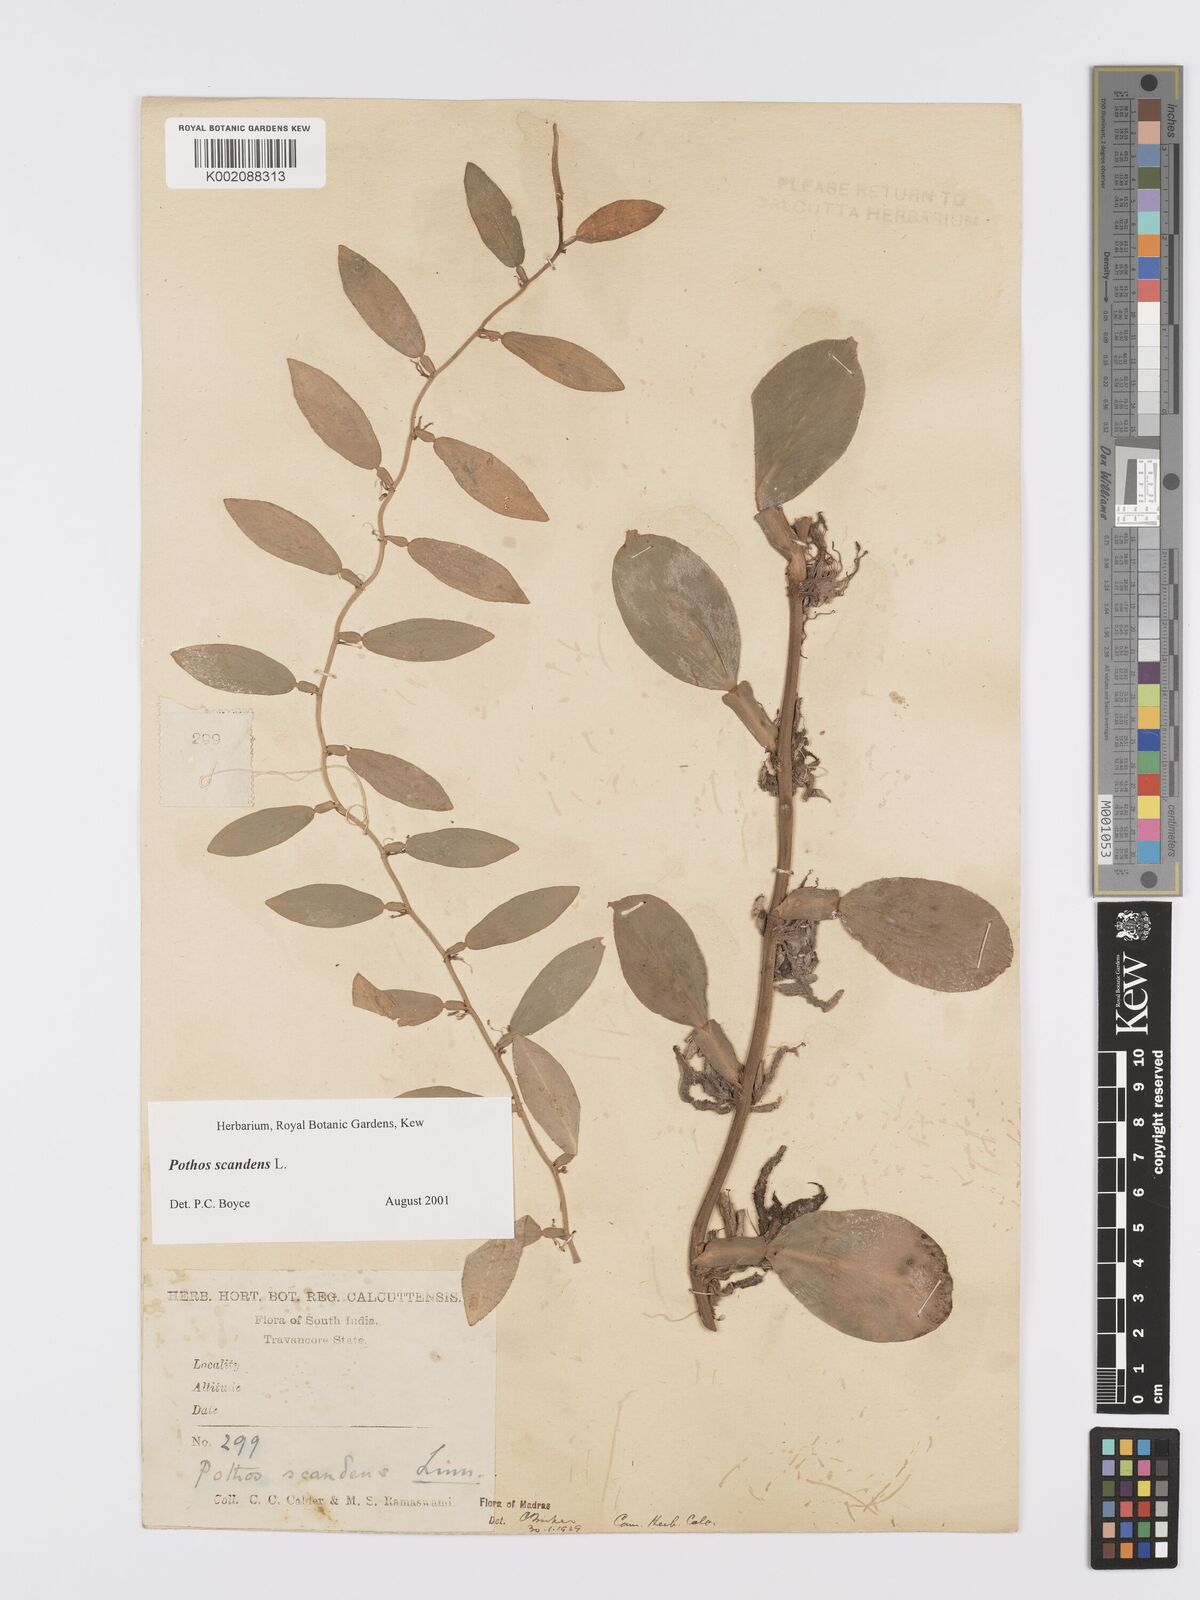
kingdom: Plantae
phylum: Tracheophyta
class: Liliopsida
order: Alismatales
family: Araceae
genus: Pothos
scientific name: Pothos scandens
